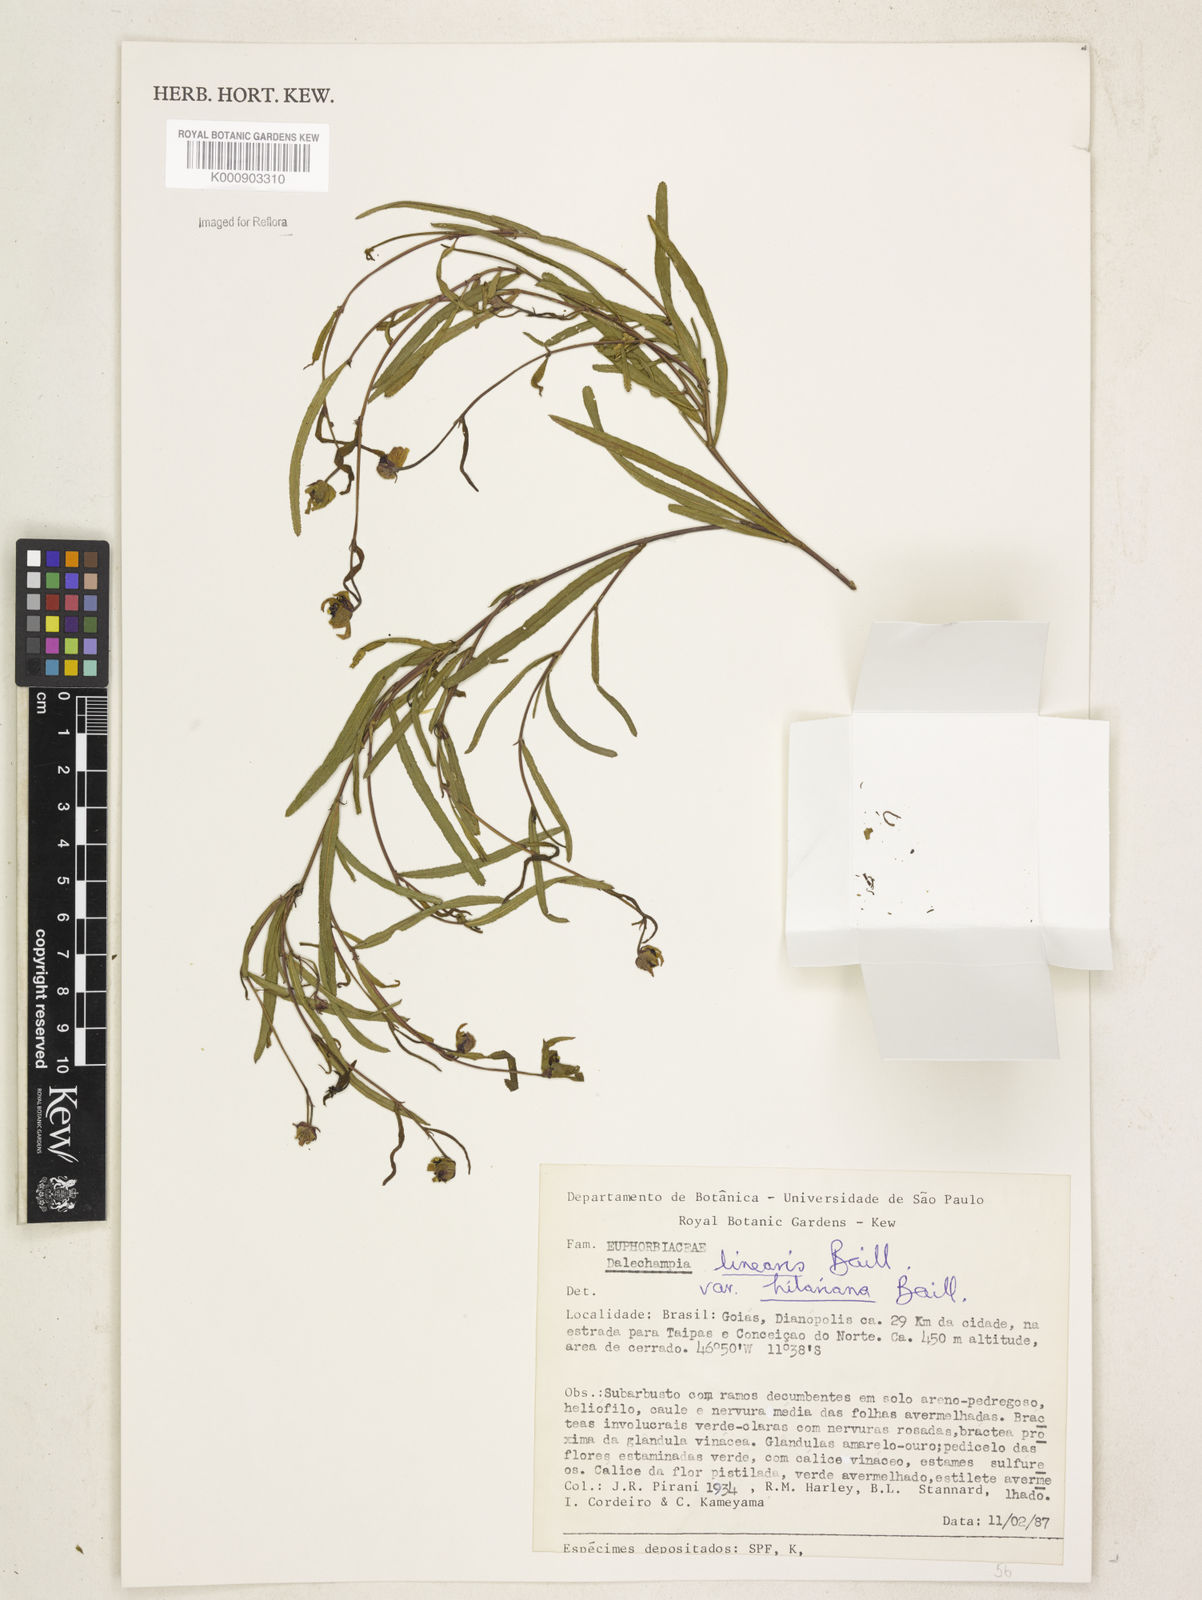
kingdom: Plantae
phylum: Tracheophyta
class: Magnoliopsida
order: Malpighiales
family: Euphorbiaceae
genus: Dalechampia
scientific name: Dalechampia linearis
